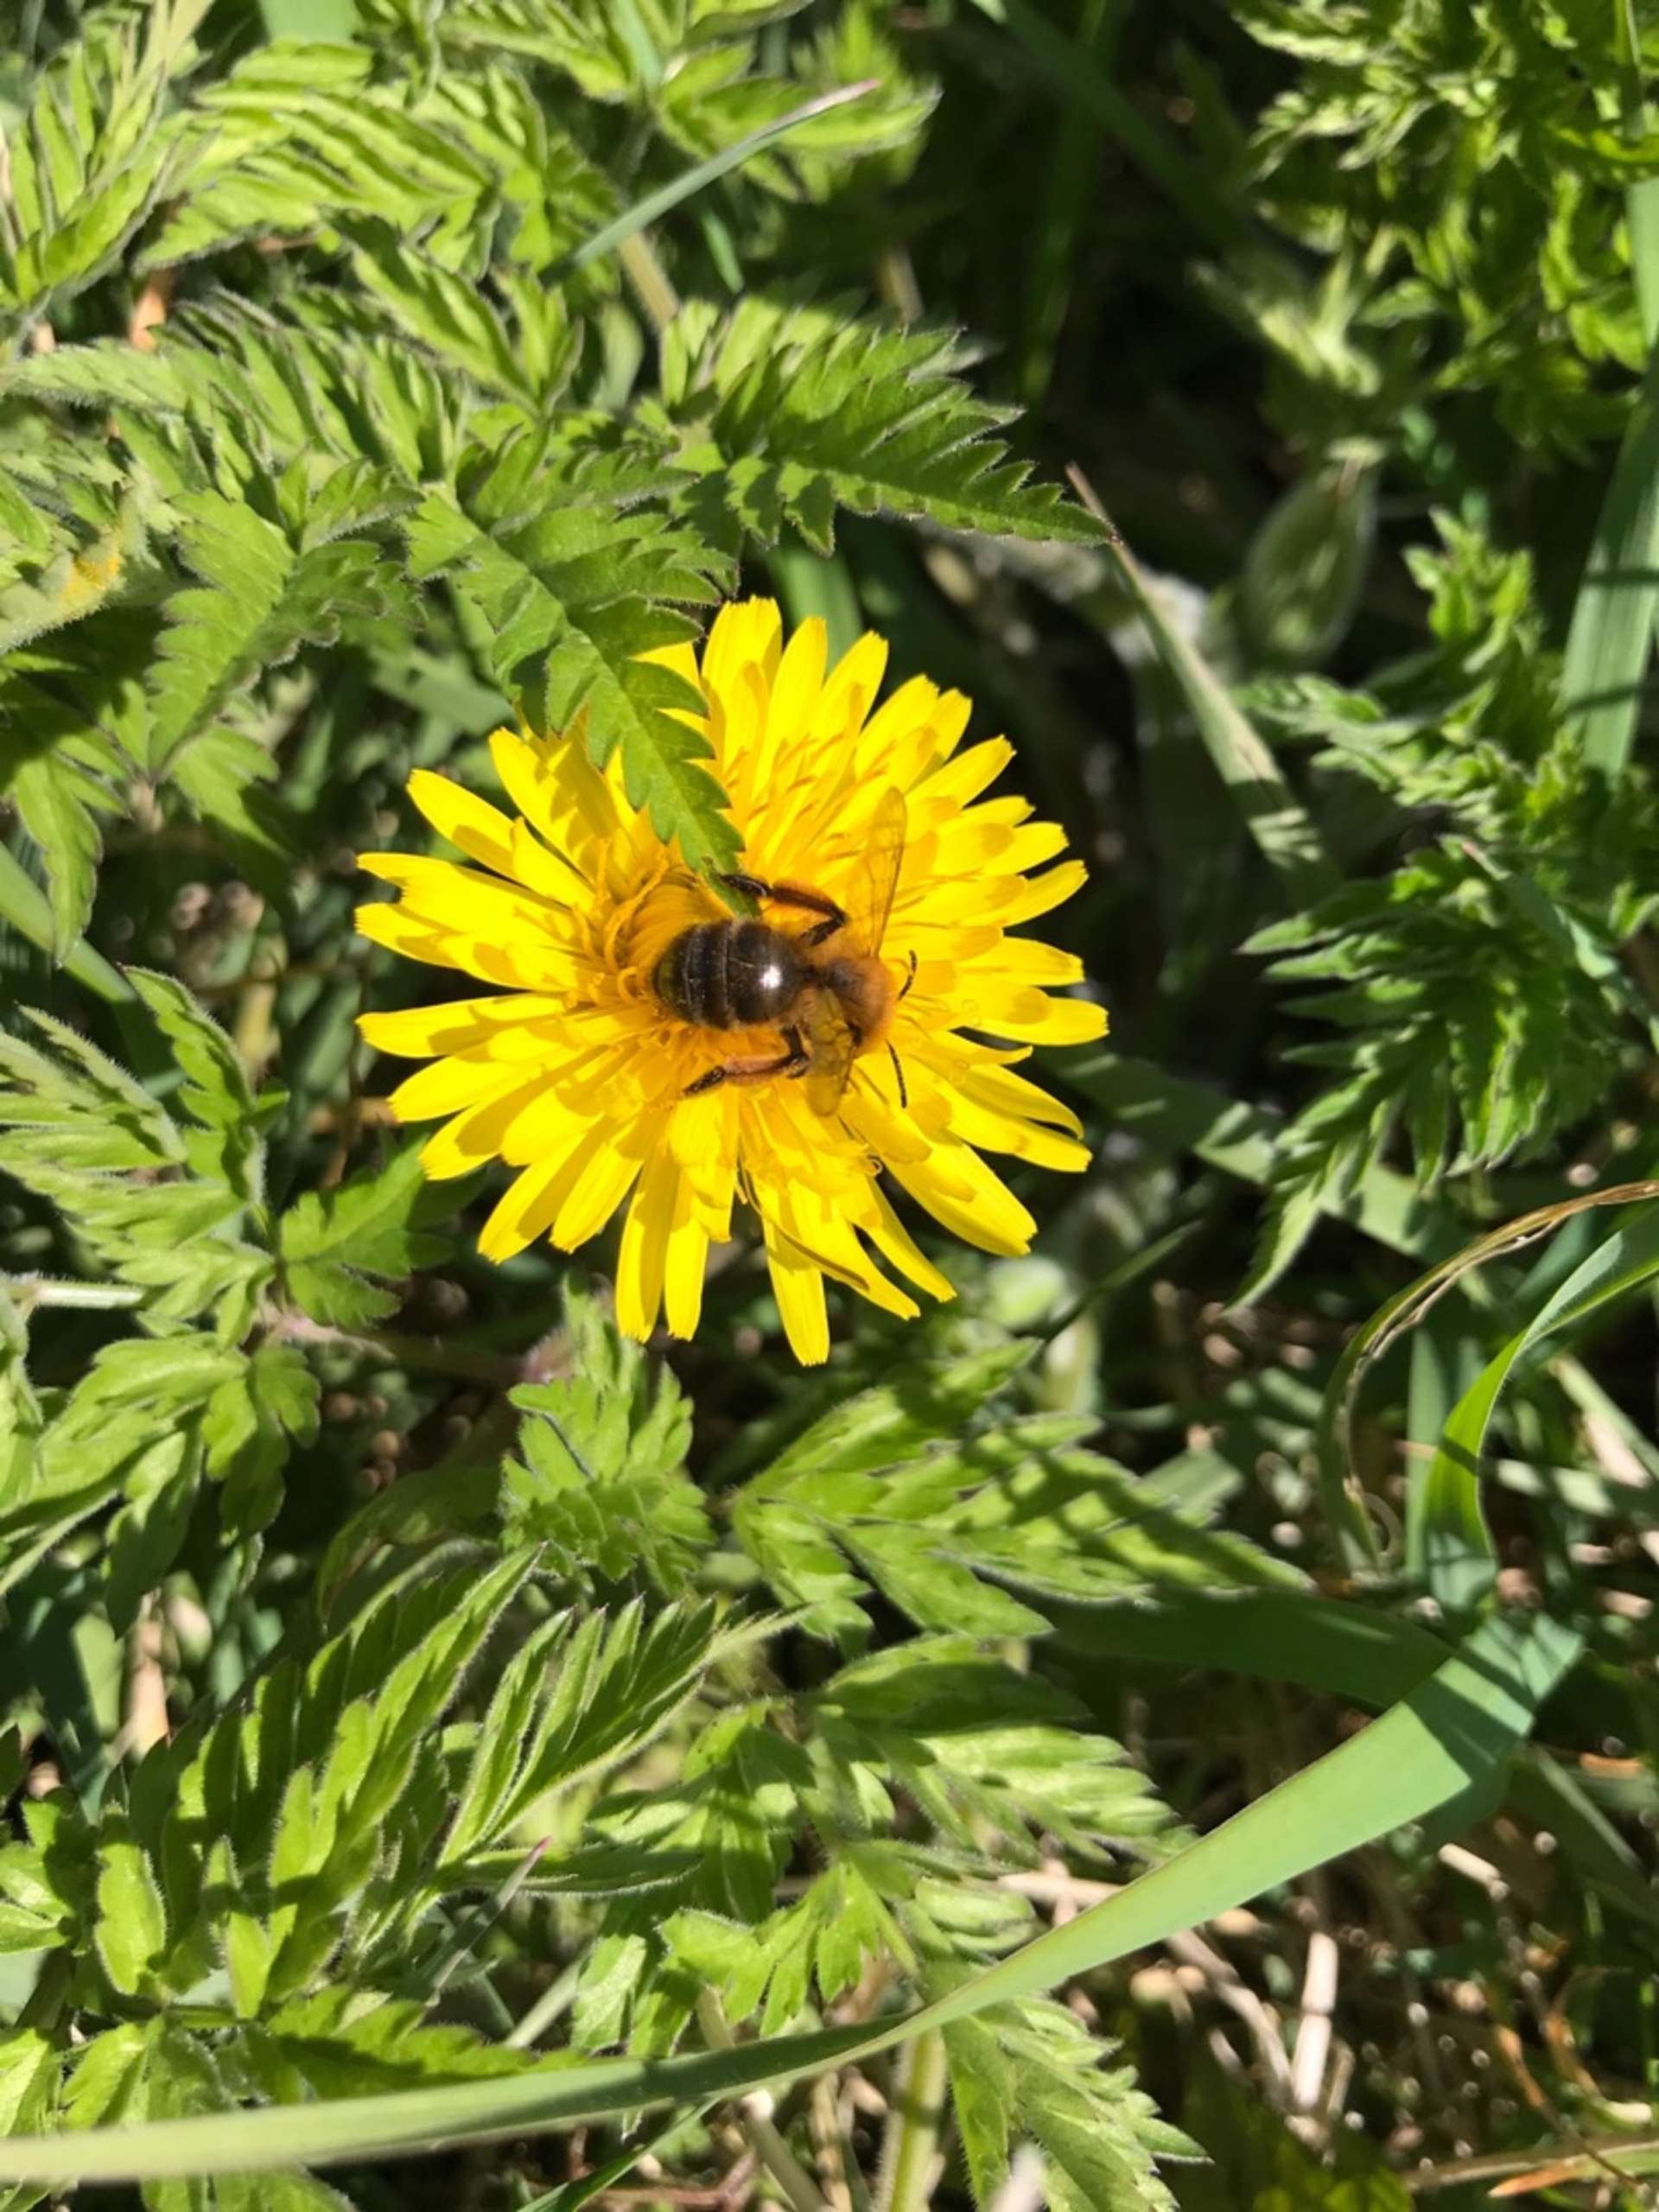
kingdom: Animalia
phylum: Arthropoda
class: Insecta
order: Hymenoptera
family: Andrenidae
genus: Andrena
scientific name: Andrena
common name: Jordbier
